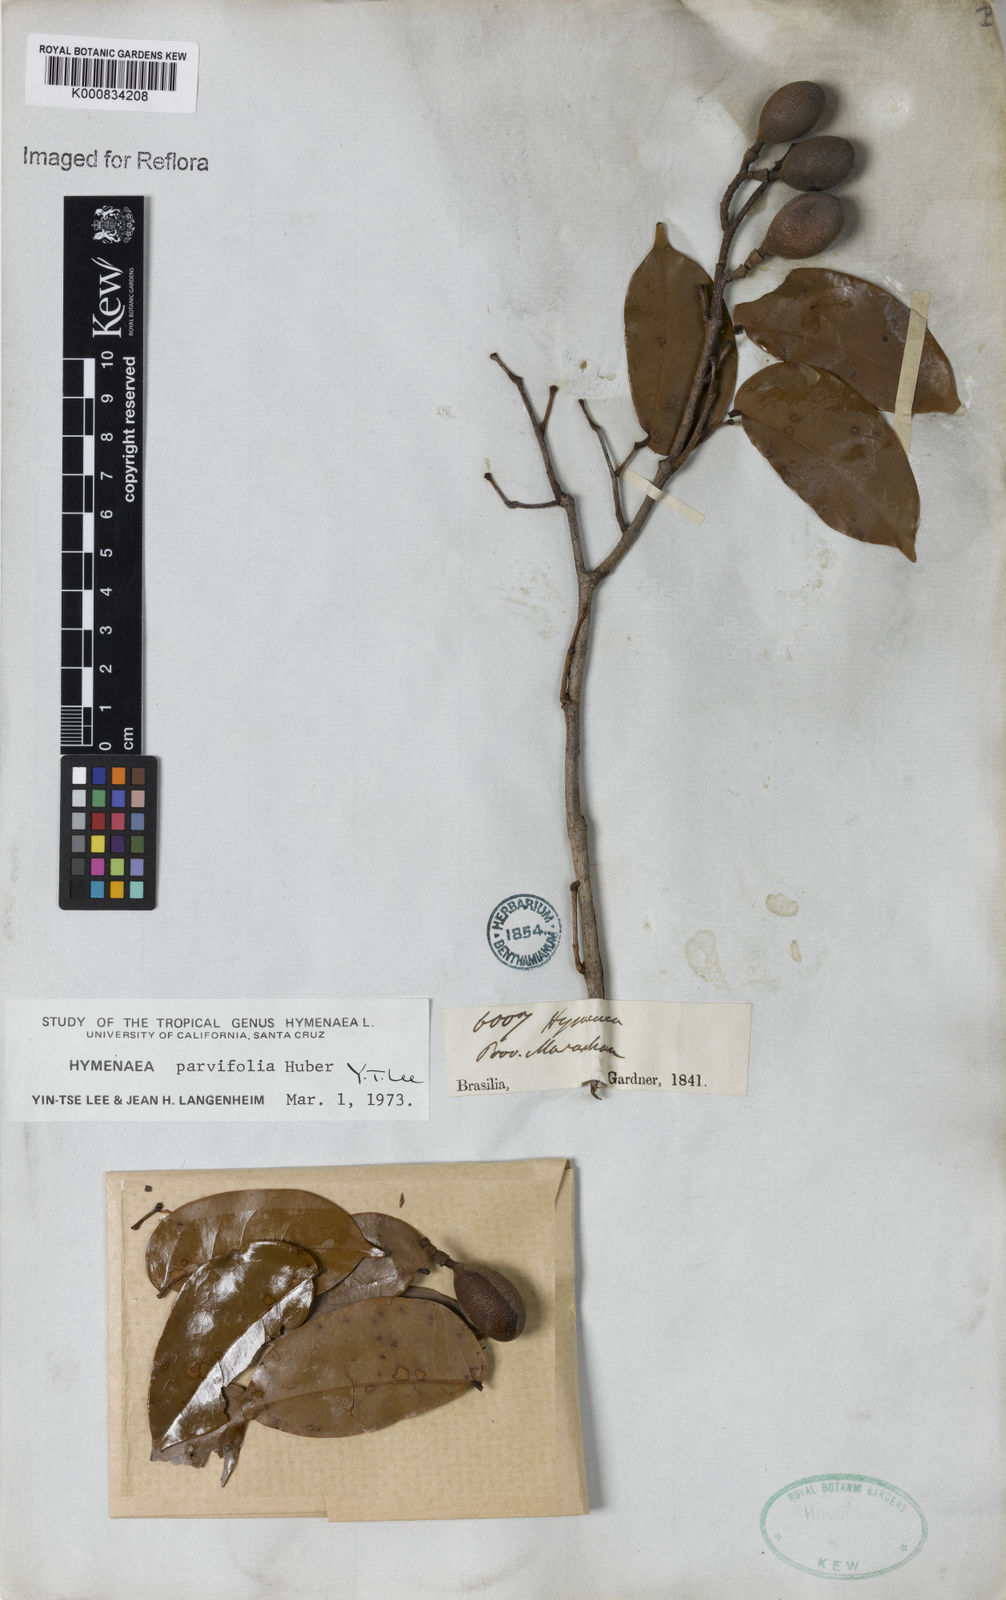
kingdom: Plantae
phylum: Tracheophyta
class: Magnoliopsida
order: Fabales
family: Fabaceae
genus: Hymenaea
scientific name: Hymenaea parvifolia
